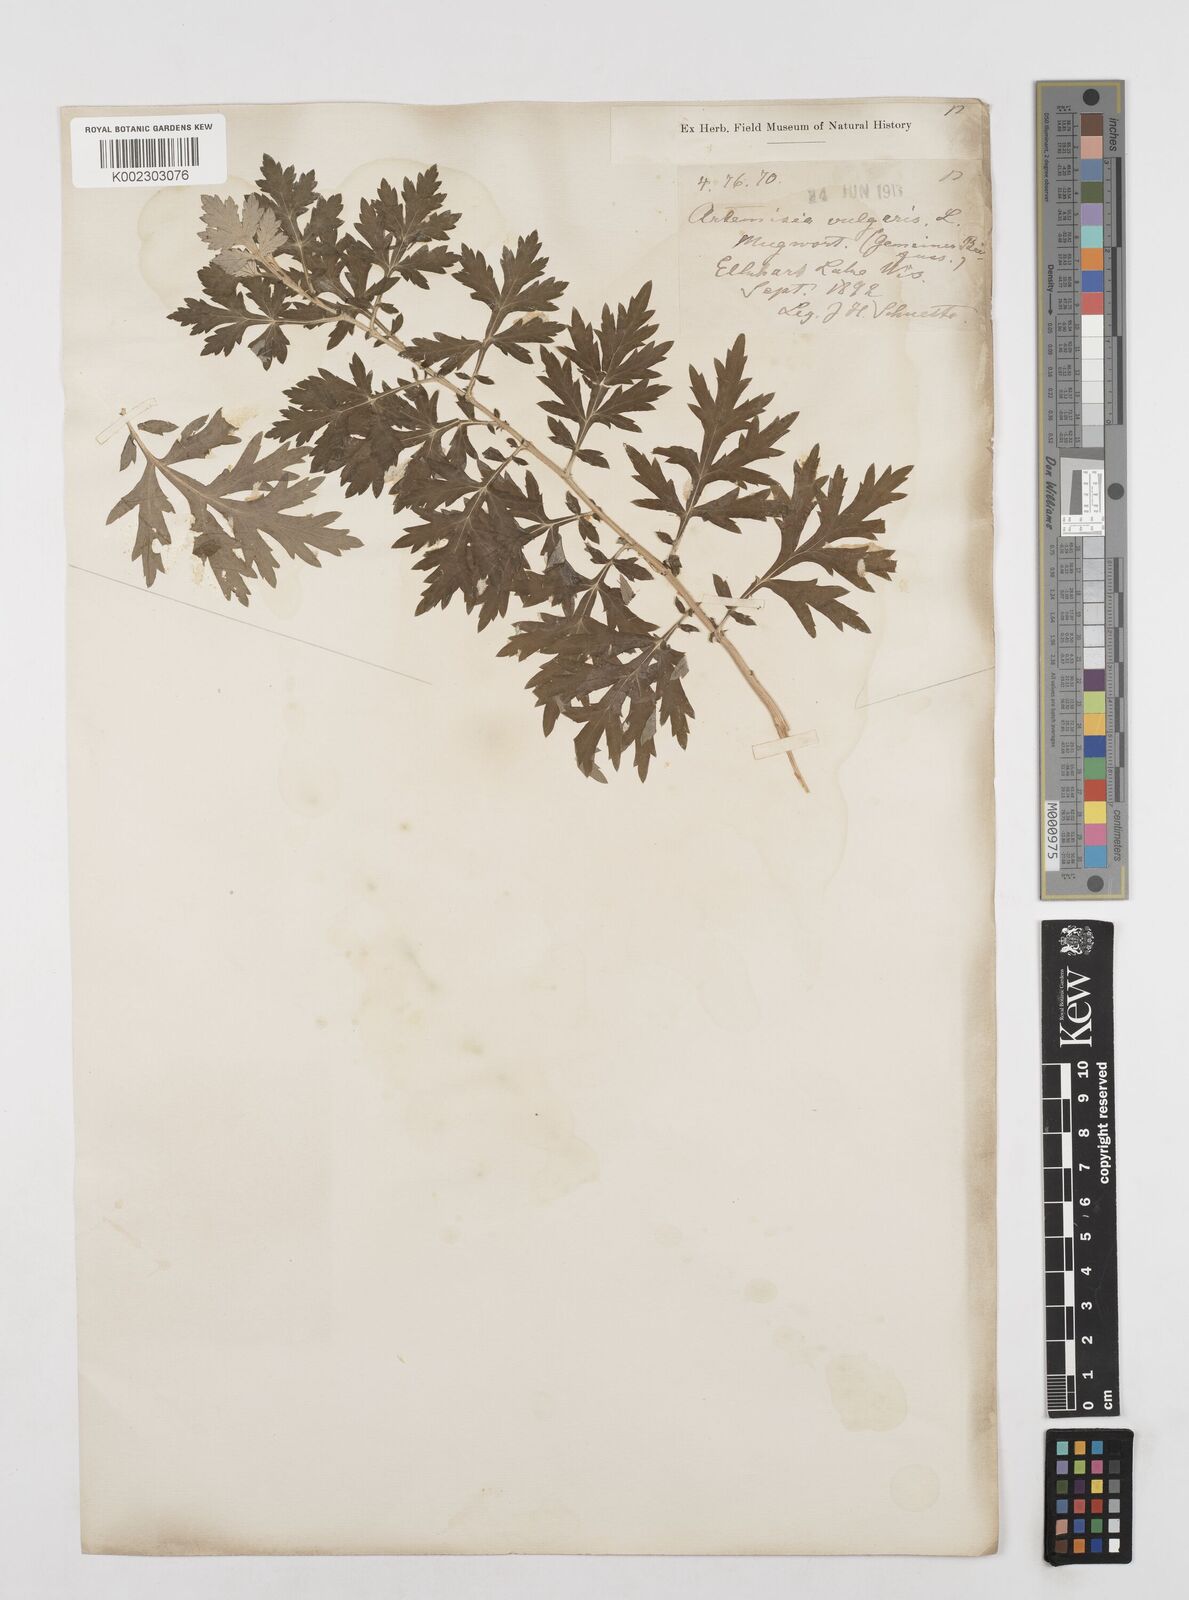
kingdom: Plantae
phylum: Tracheophyta
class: Magnoliopsida
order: Asterales
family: Asteraceae
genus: Artemisia
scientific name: Artemisia vulgaris
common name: Mugwort
